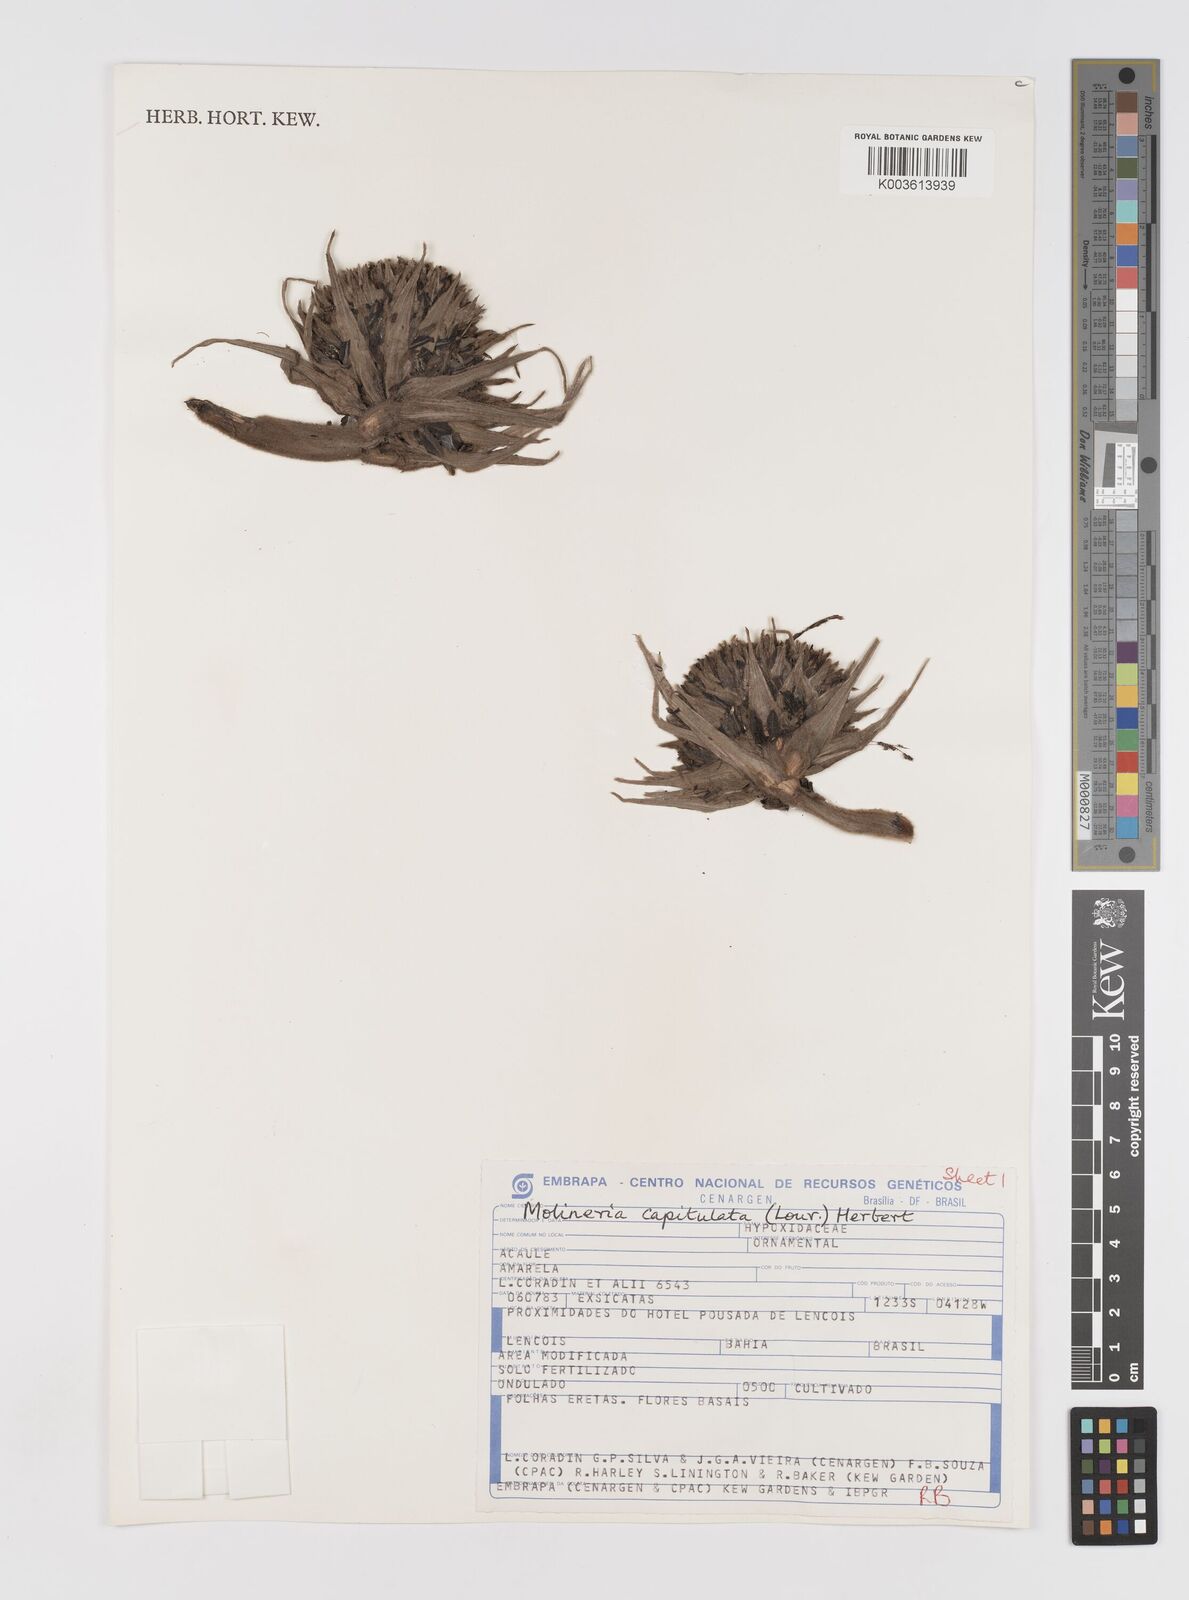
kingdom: Plantae
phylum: Tracheophyta
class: Liliopsida
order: Asparagales
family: Hypoxidaceae
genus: Curculigo
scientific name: Curculigo capitulata
